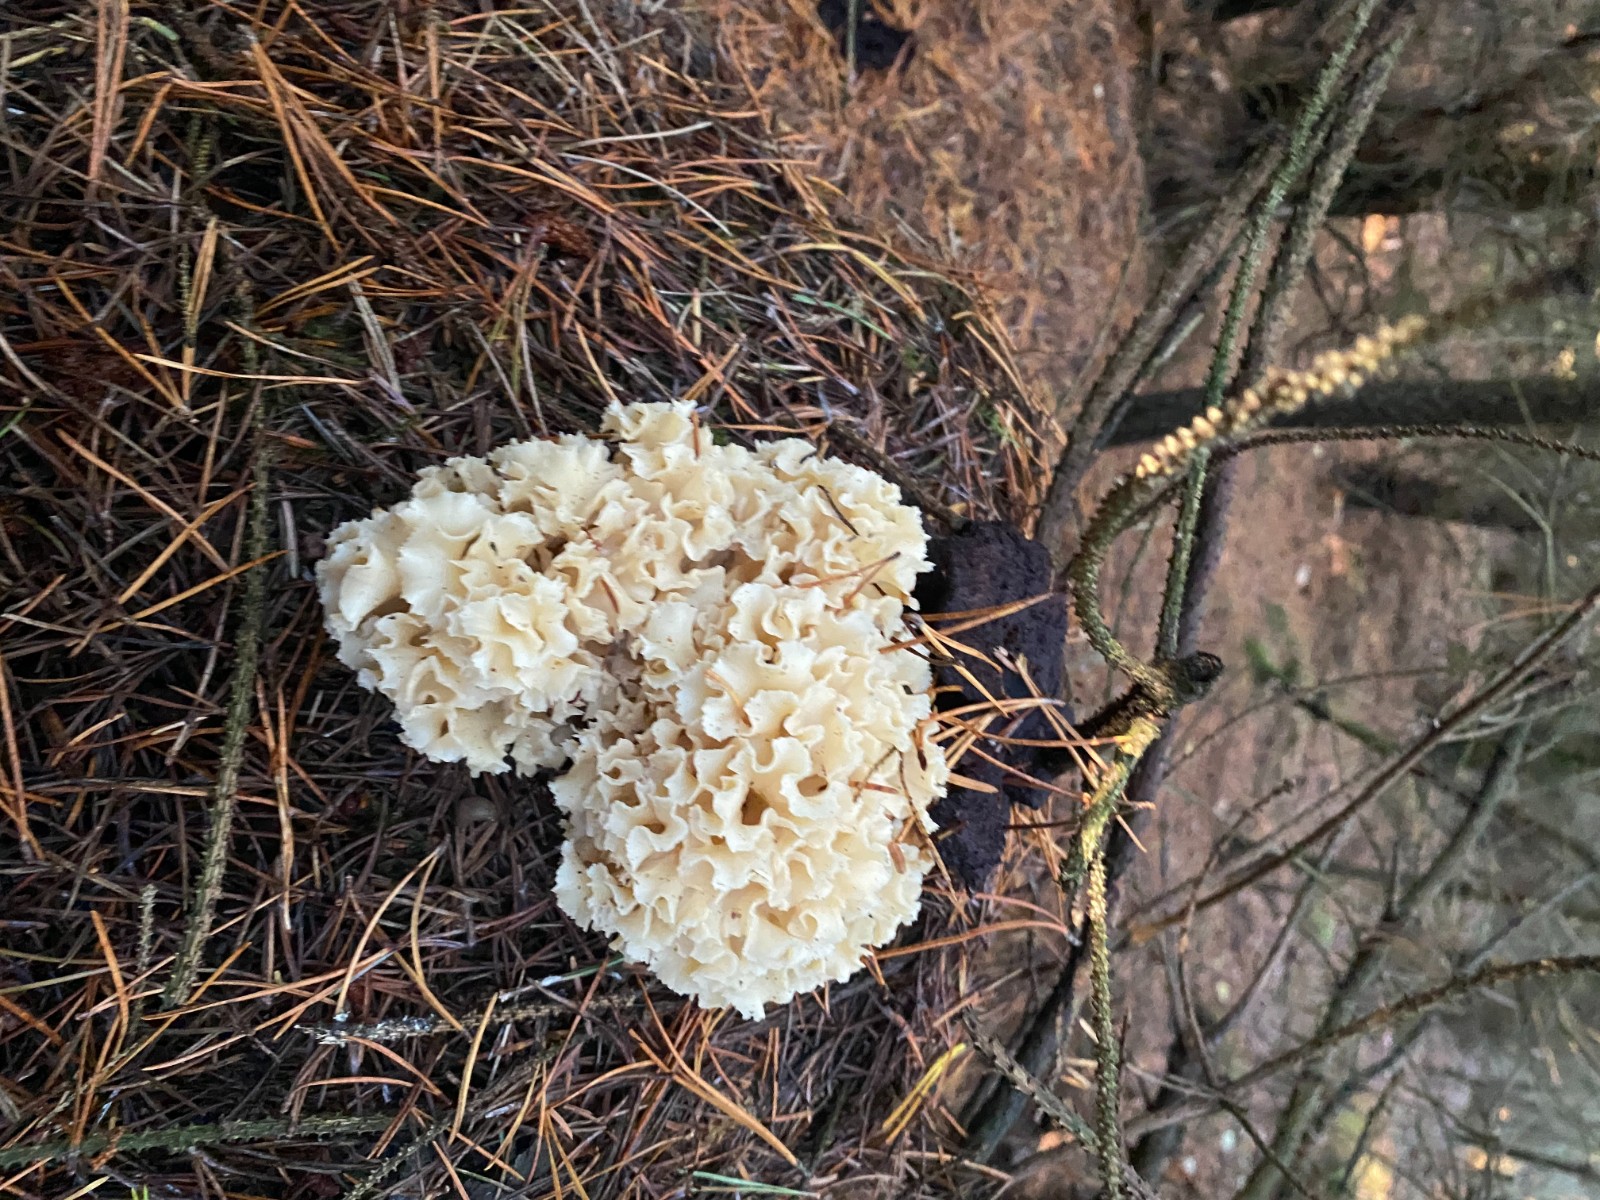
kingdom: Fungi
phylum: Basidiomycota
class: Agaricomycetes
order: Polyporales
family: Sparassidaceae
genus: Sparassis
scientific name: Sparassis crispa
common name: kruset blomkålssvamp
